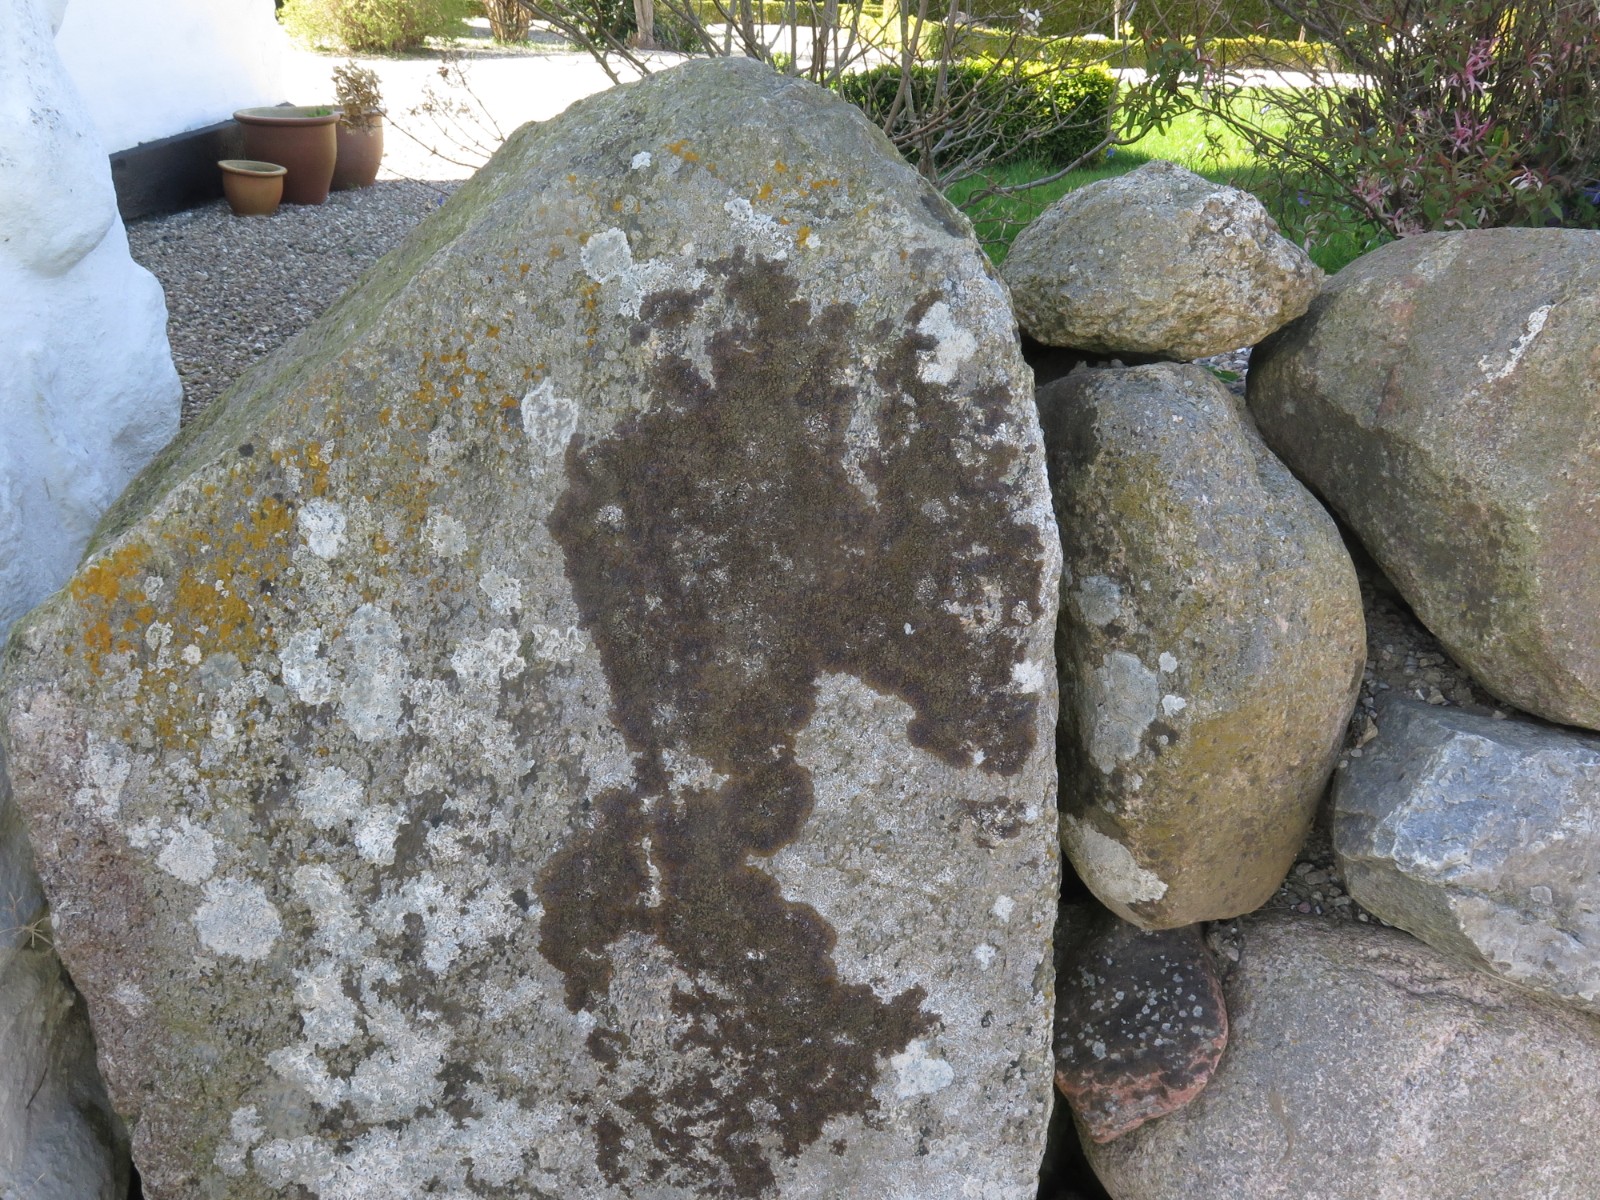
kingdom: Fungi
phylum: Ascomycota
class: Lecanoromycetes
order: Lecanorales
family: Parmeliaceae
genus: Xanthoparmelia
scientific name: Xanthoparmelia verruculifera
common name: småknoppet skållav
